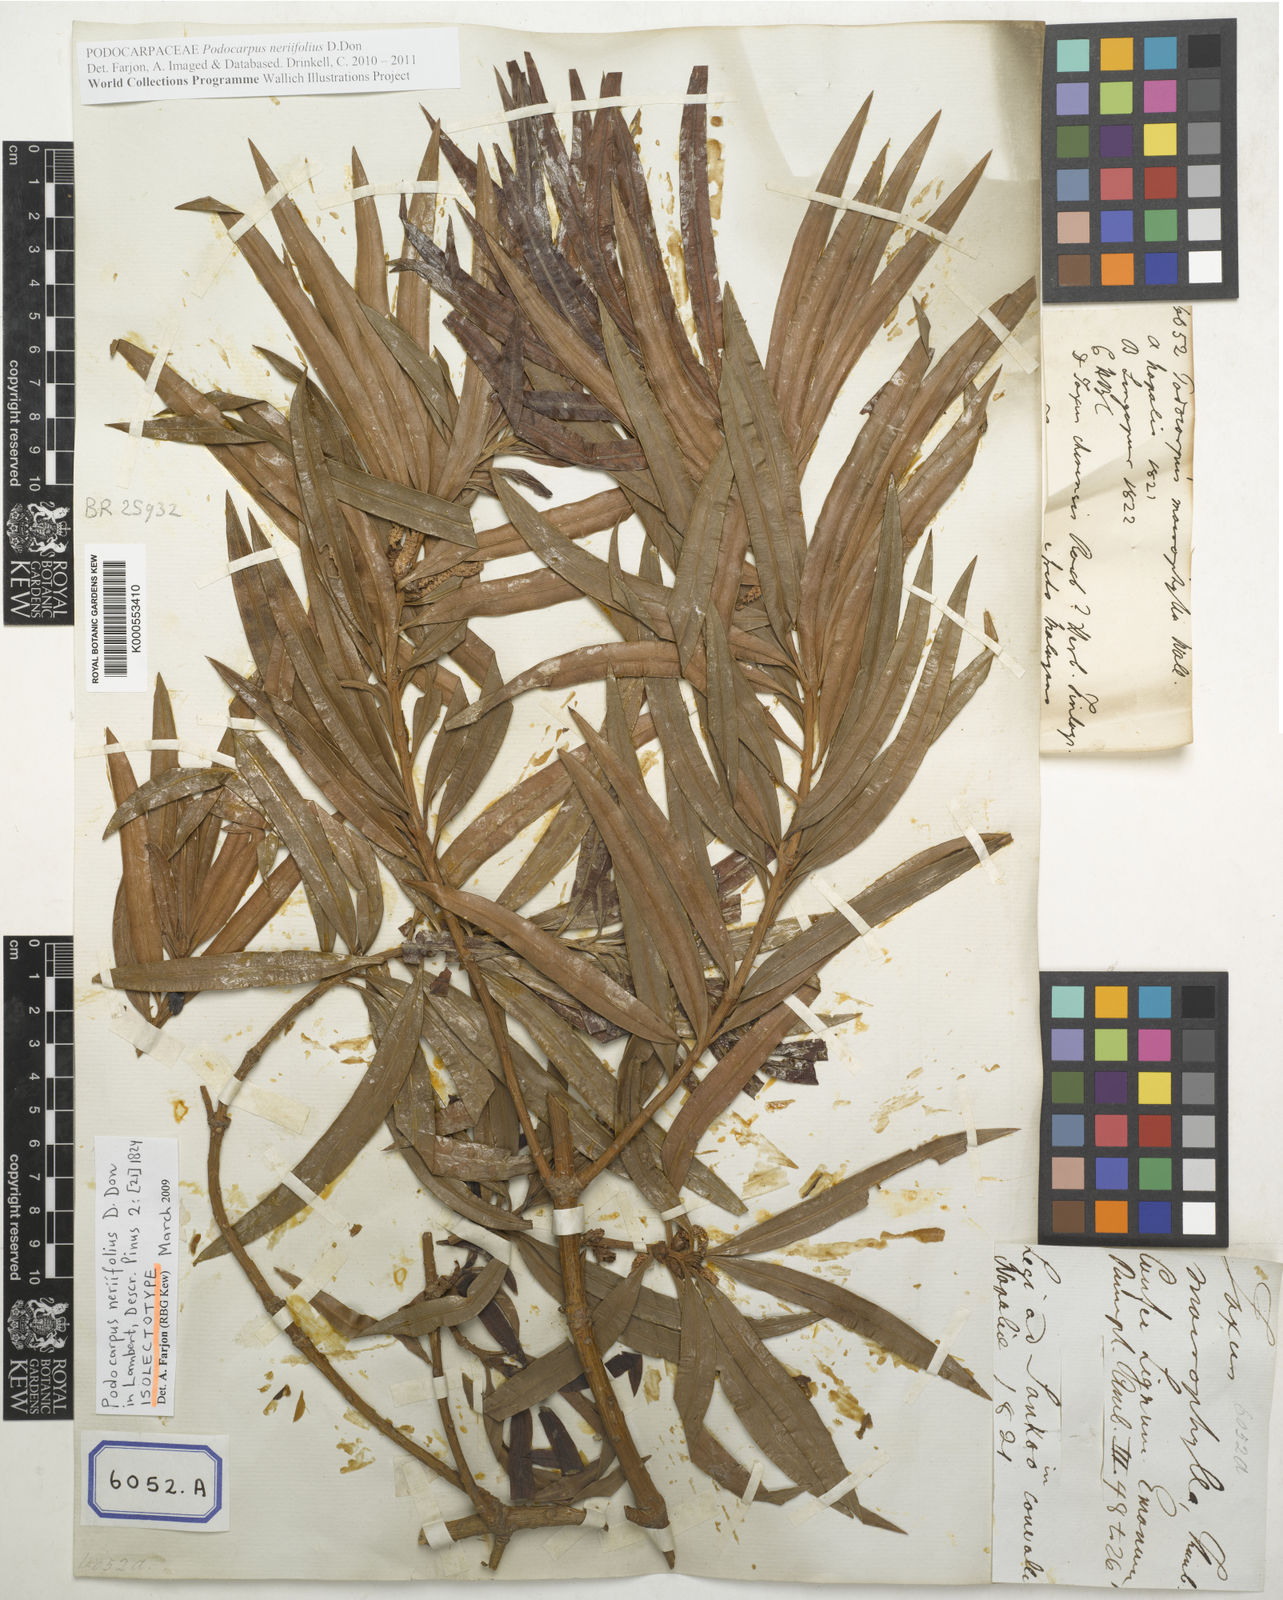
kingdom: Plantae
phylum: Tracheophyta
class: Pinopsida
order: Pinales
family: Podocarpaceae
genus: Podocarpus
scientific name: Podocarpus
